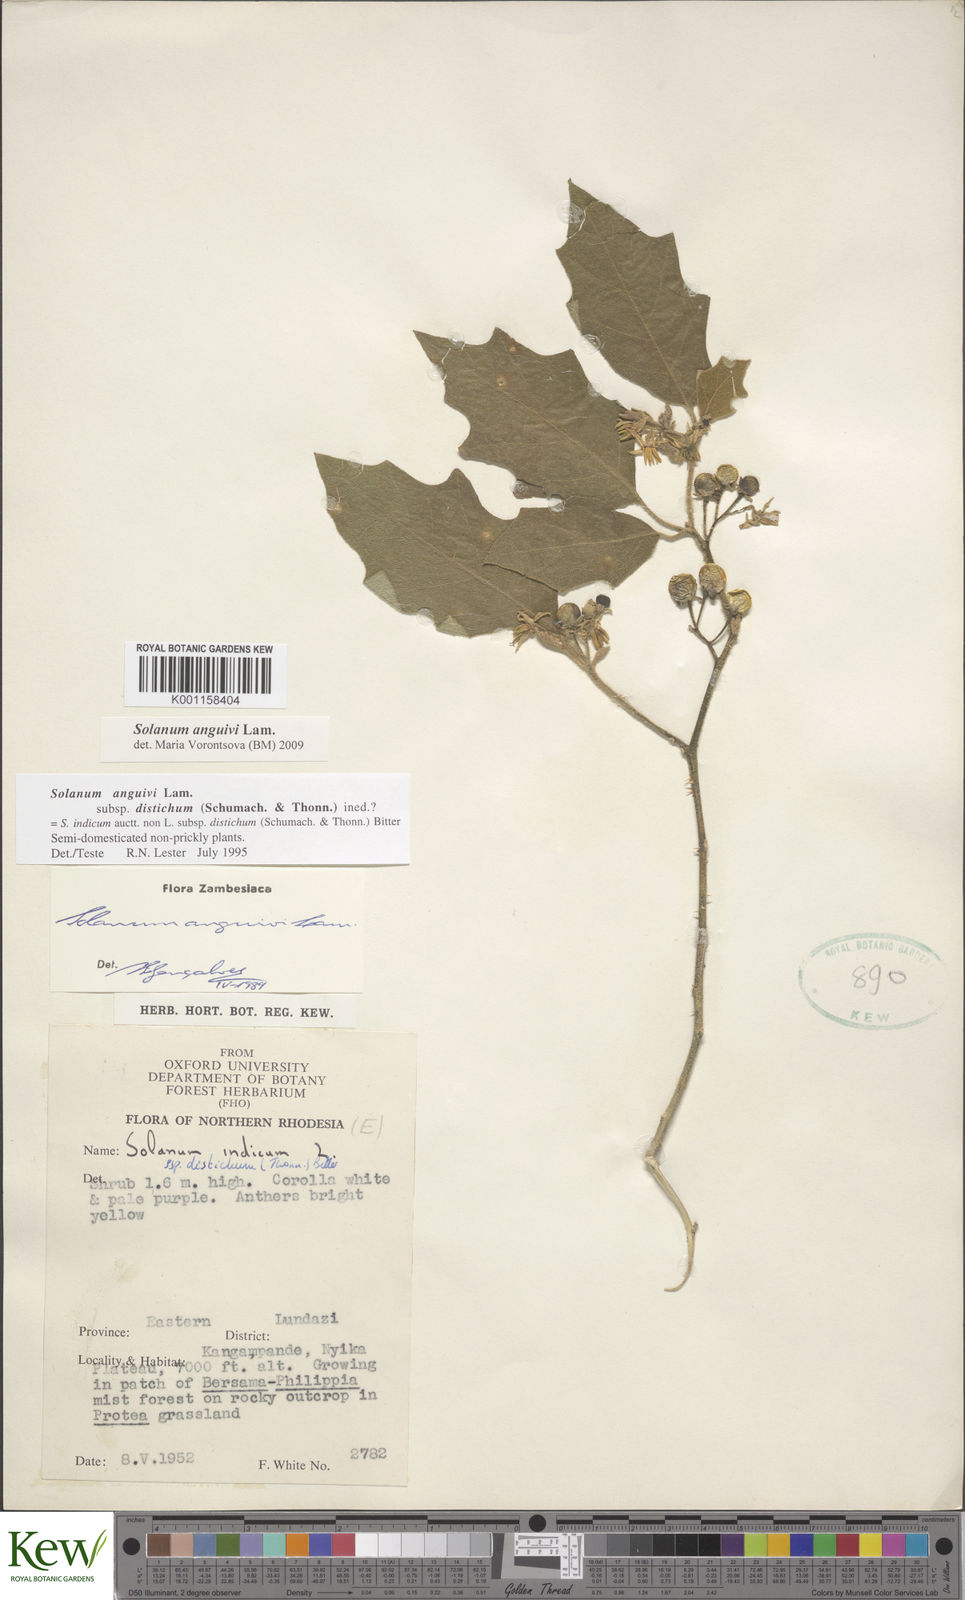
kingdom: Plantae
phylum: Tracheophyta
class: Magnoliopsida
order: Solanales
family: Solanaceae
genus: Solanum
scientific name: Solanum anguivi
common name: Forest bitterberry
